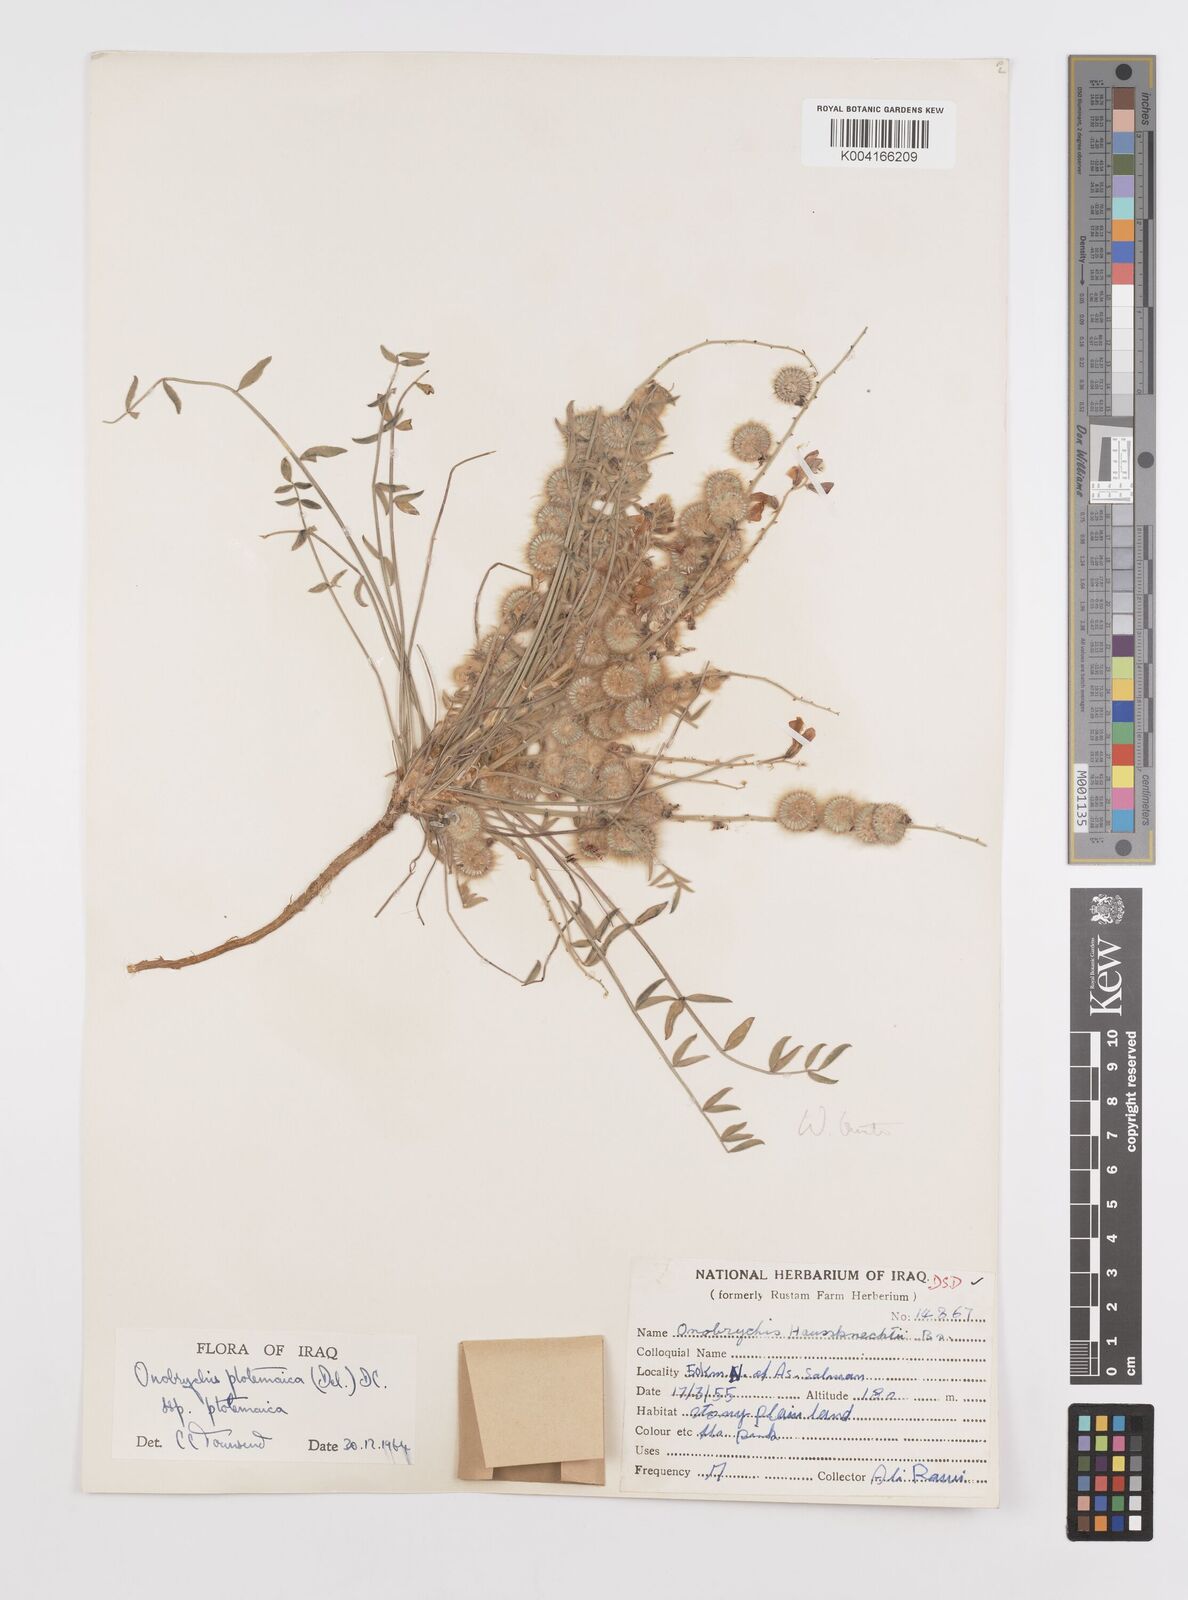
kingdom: Plantae
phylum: Tracheophyta
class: Magnoliopsida
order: Fabales
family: Fabaceae
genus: Onobrychis
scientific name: Onobrychis ptolemaica
